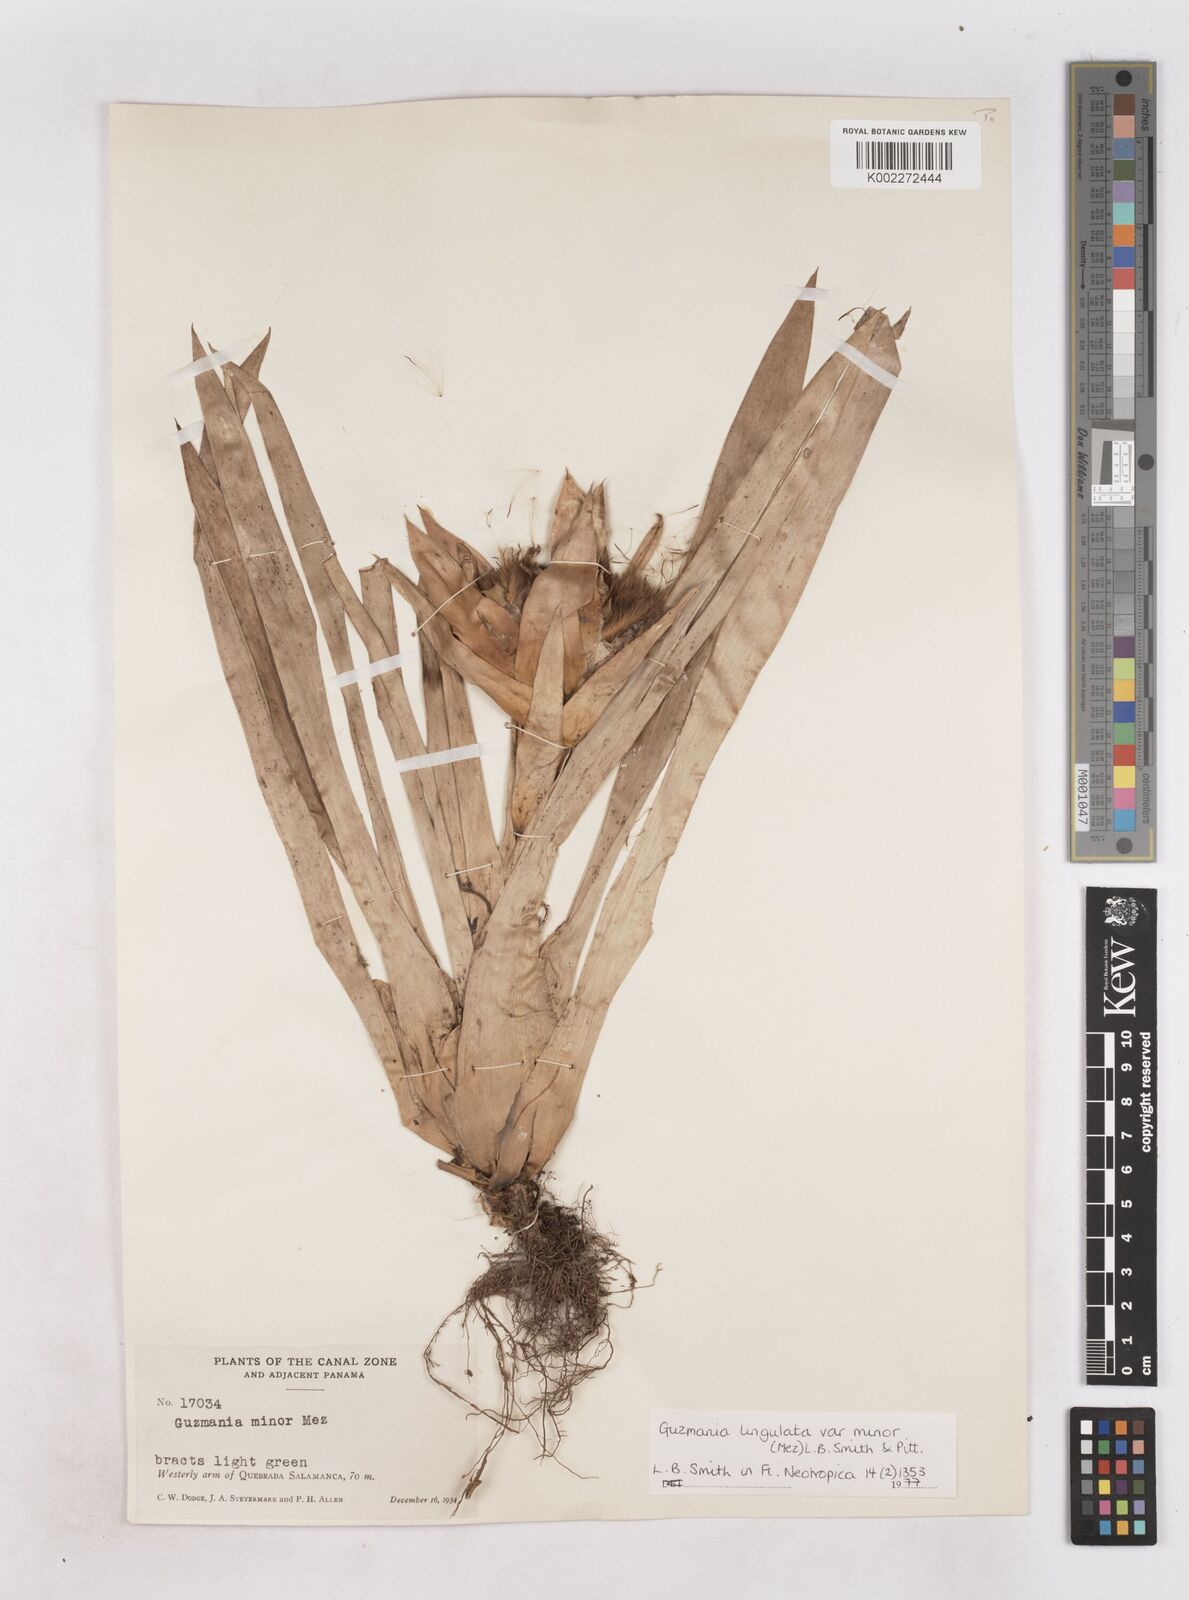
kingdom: Plantae
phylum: Tracheophyta
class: Liliopsida
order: Poales
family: Bromeliaceae
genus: Guzmania
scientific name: Guzmania lingulata
